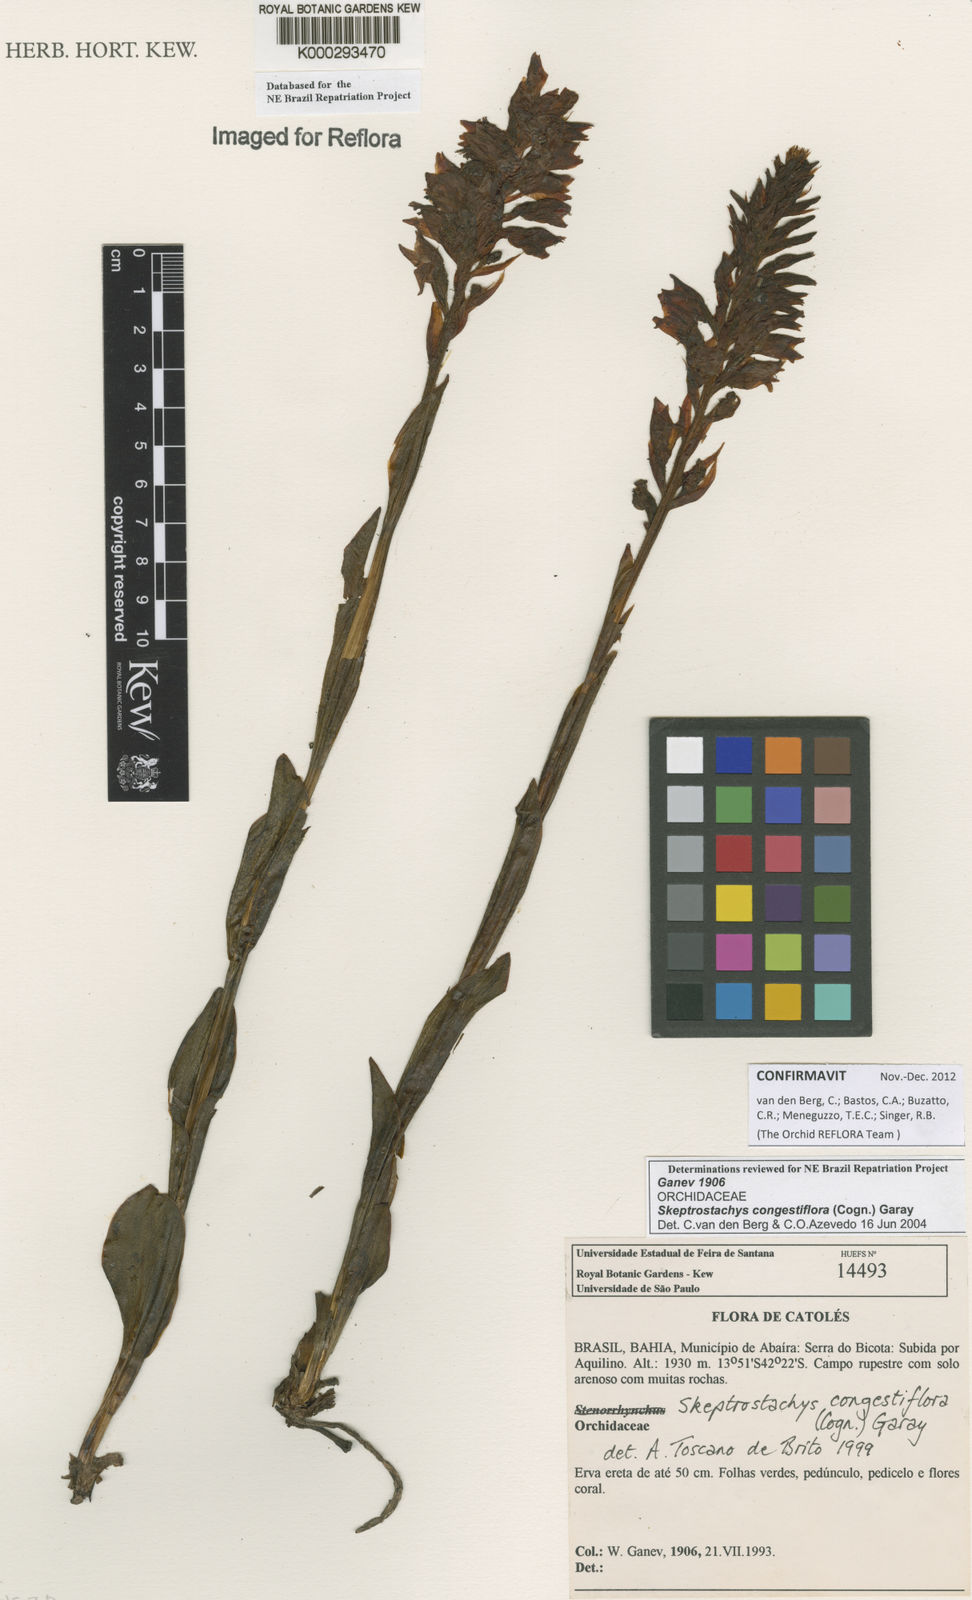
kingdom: Plantae
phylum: Tracheophyta
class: Liliopsida
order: Asparagales
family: Orchidaceae
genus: Skeptrostachys
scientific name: Skeptrostachys congestiflora
